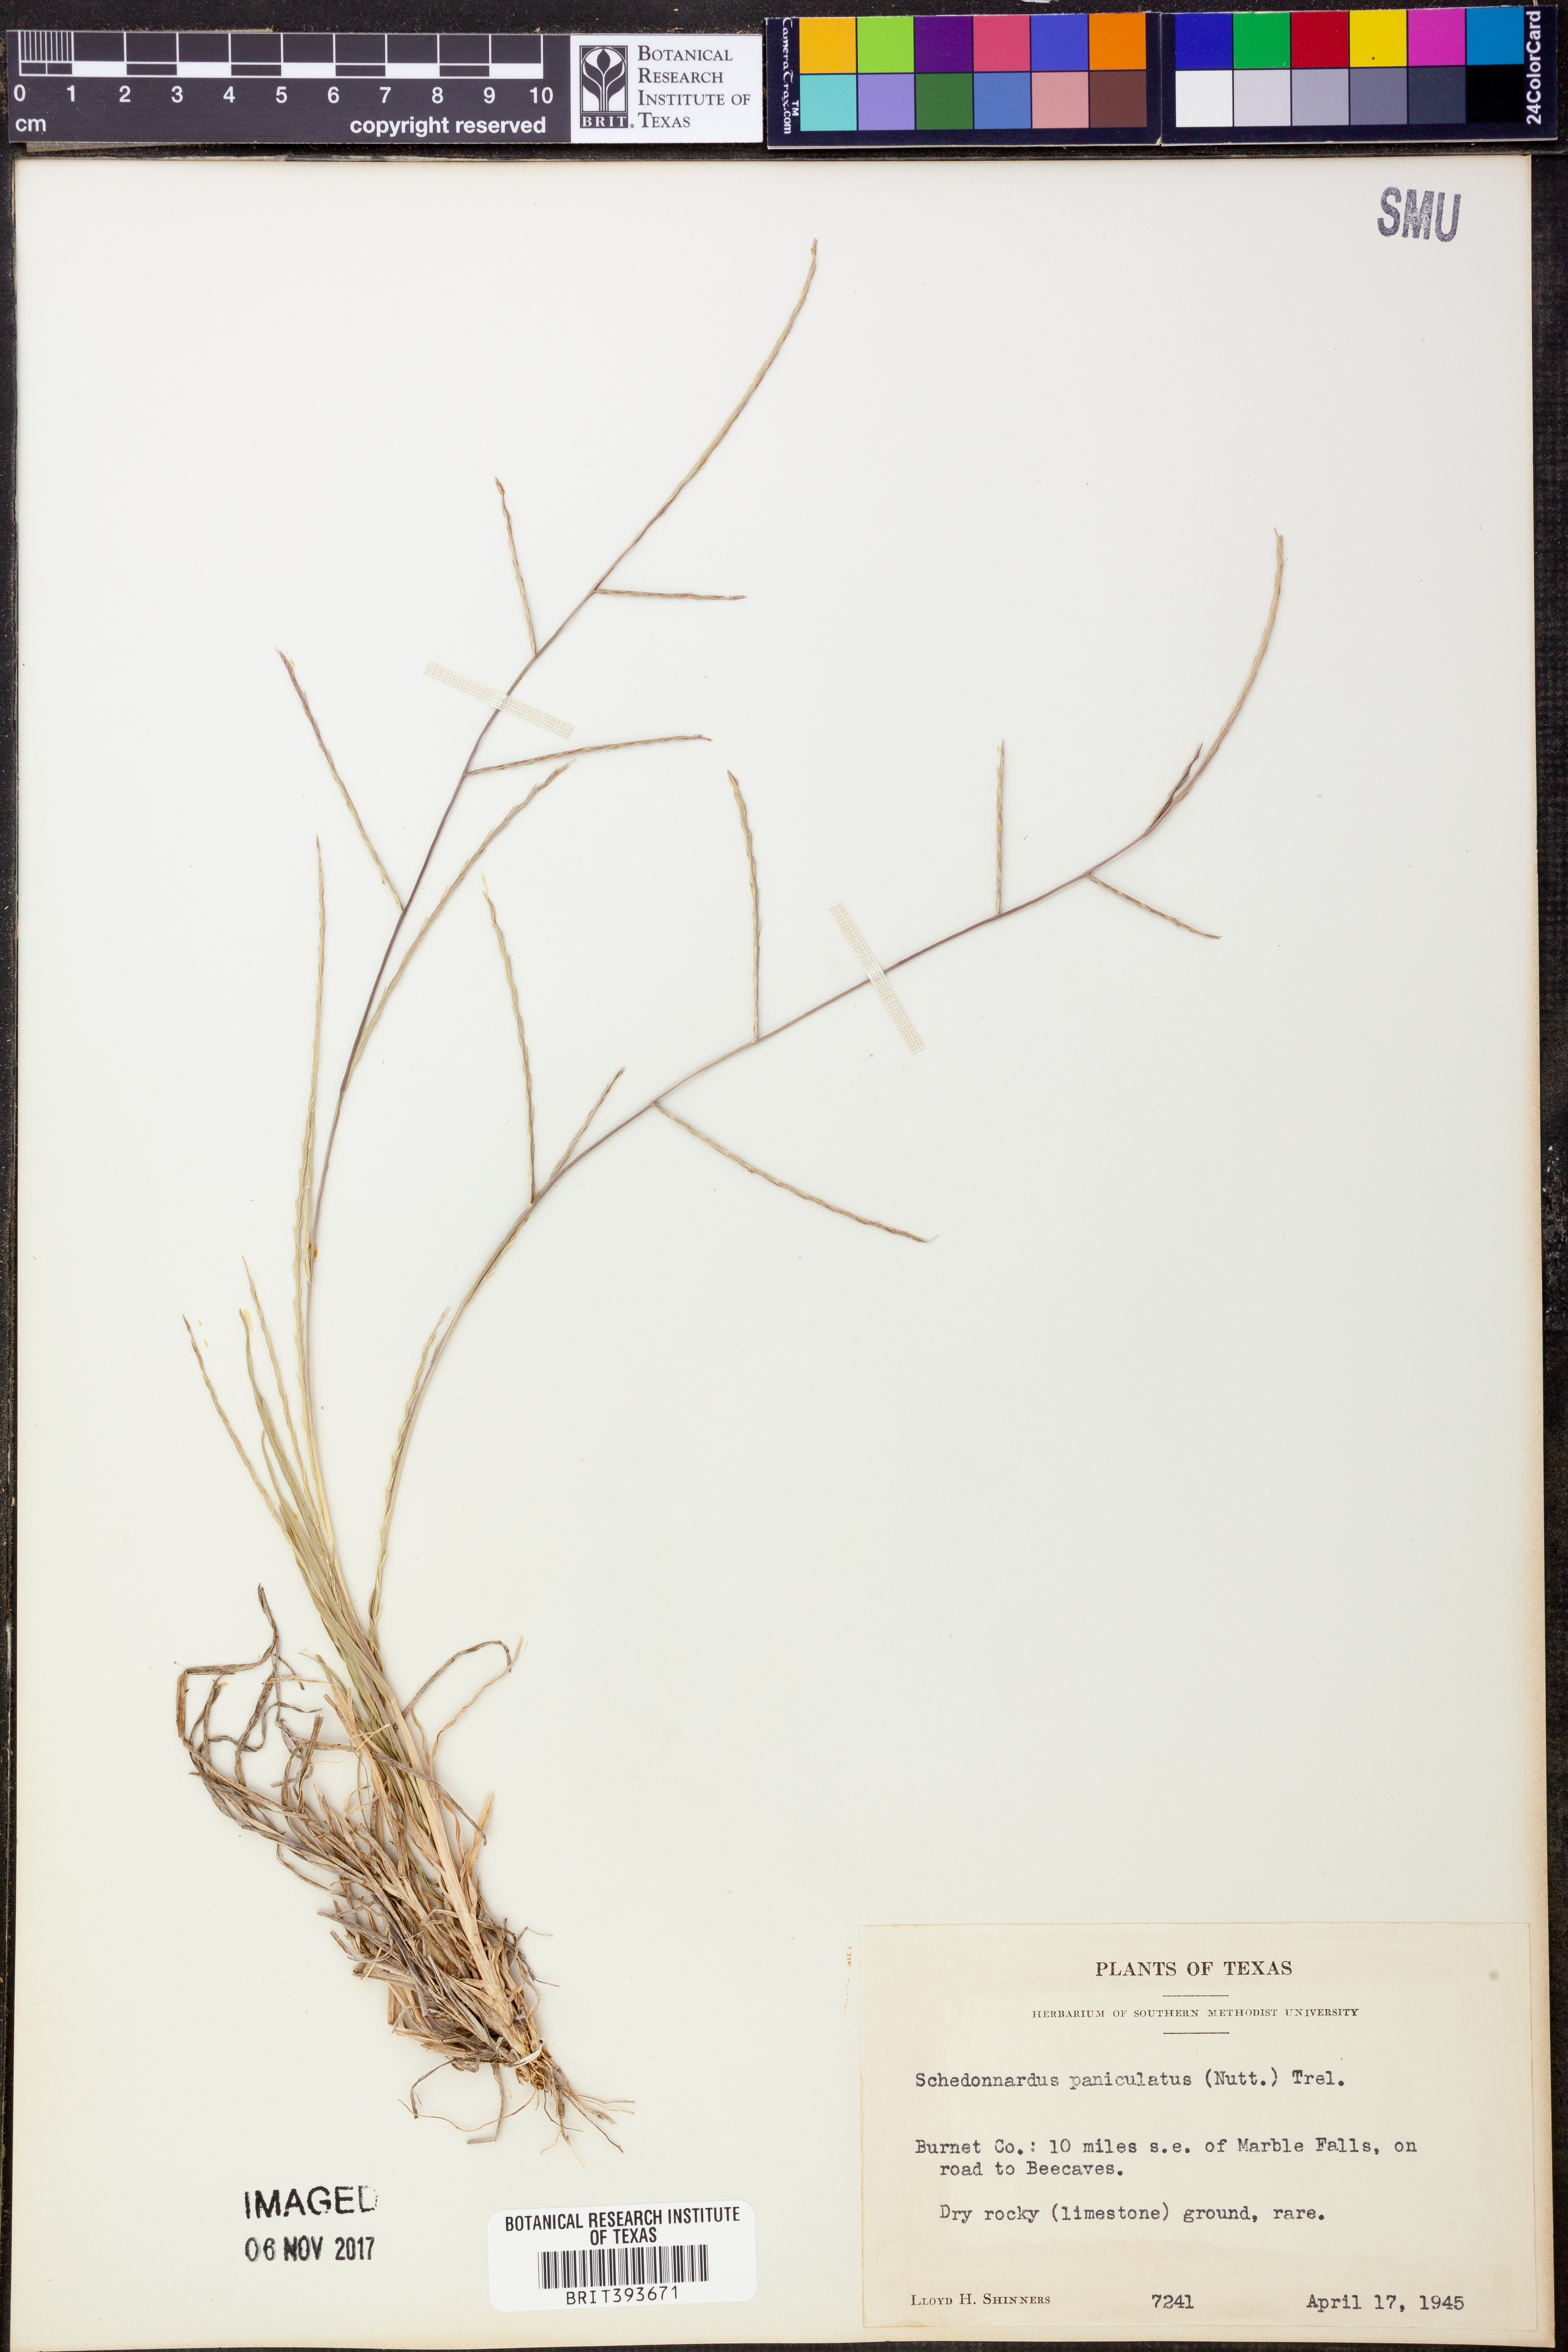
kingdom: Plantae
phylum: Tracheophyta
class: Liliopsida
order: Poales
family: Poaceae
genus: Muhlenbergia
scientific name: Muhlenbergia paniculata
